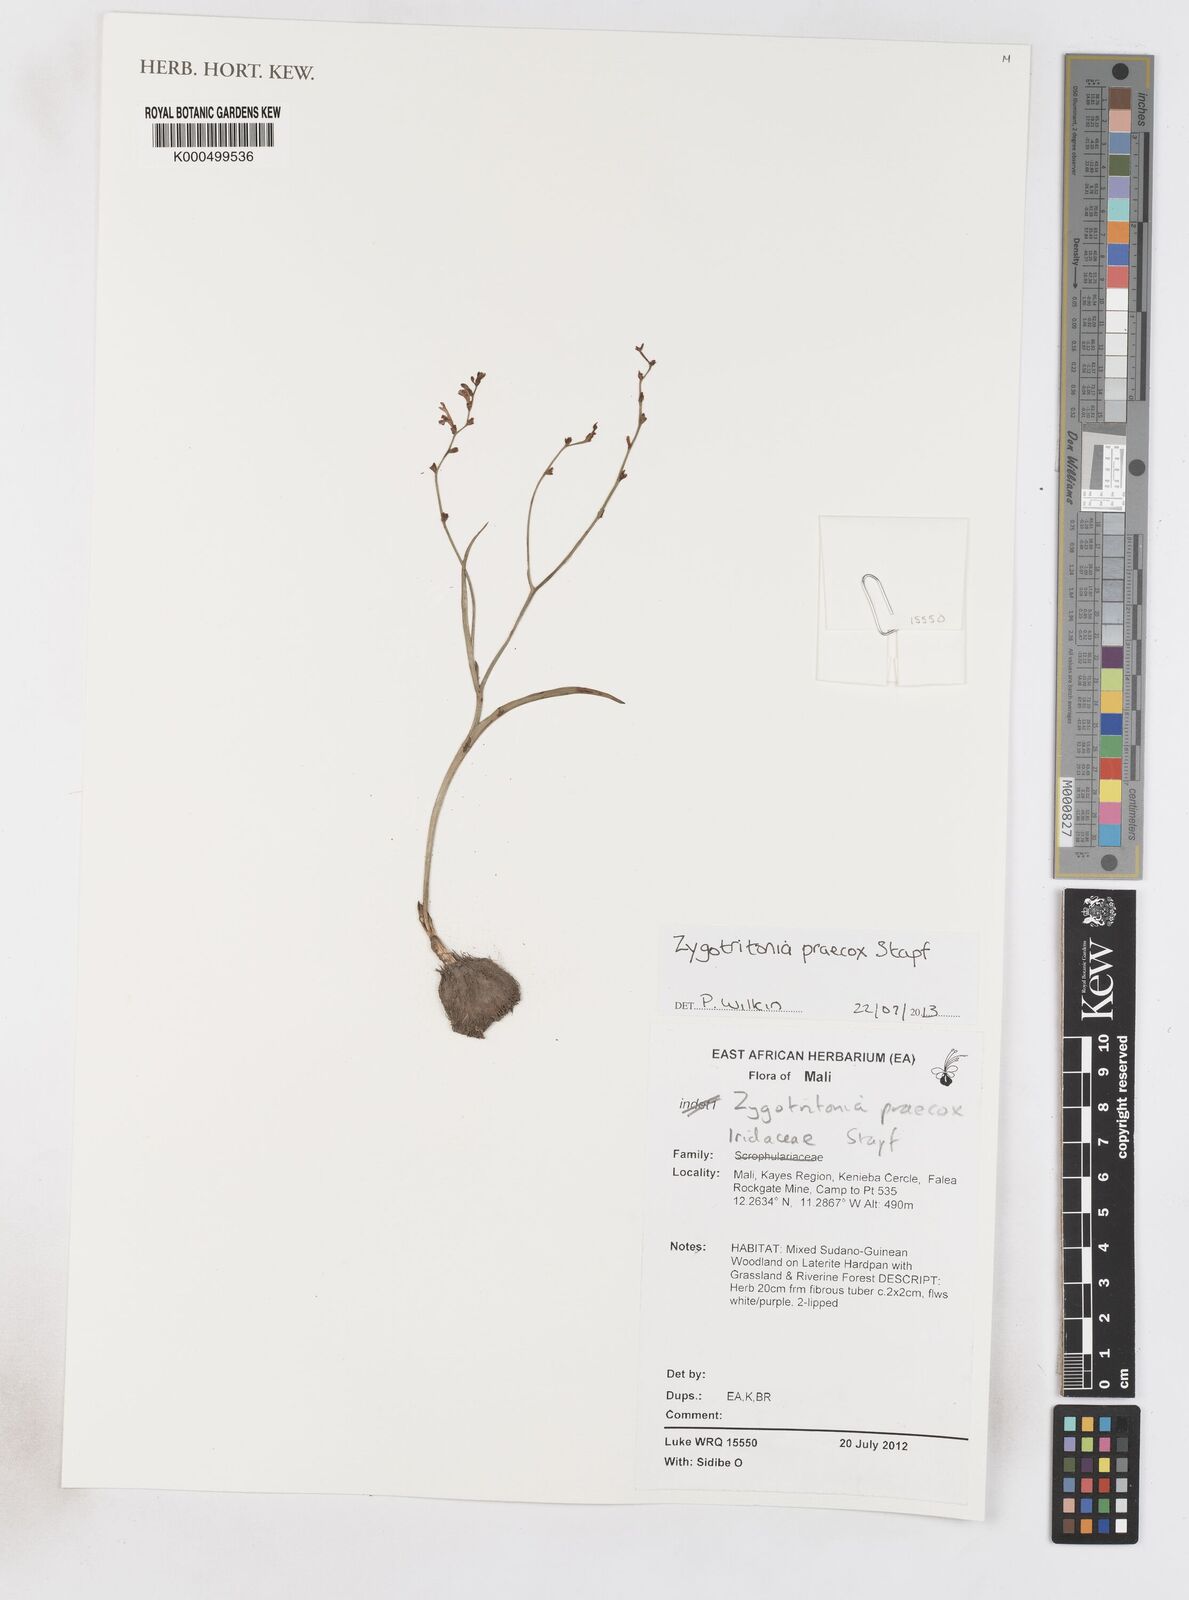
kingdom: Plantae
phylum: Tracheophyta
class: Liliopsida
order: Asparagales
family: Iridaceae
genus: Zygotritonia
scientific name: Zygotritonia praecox
